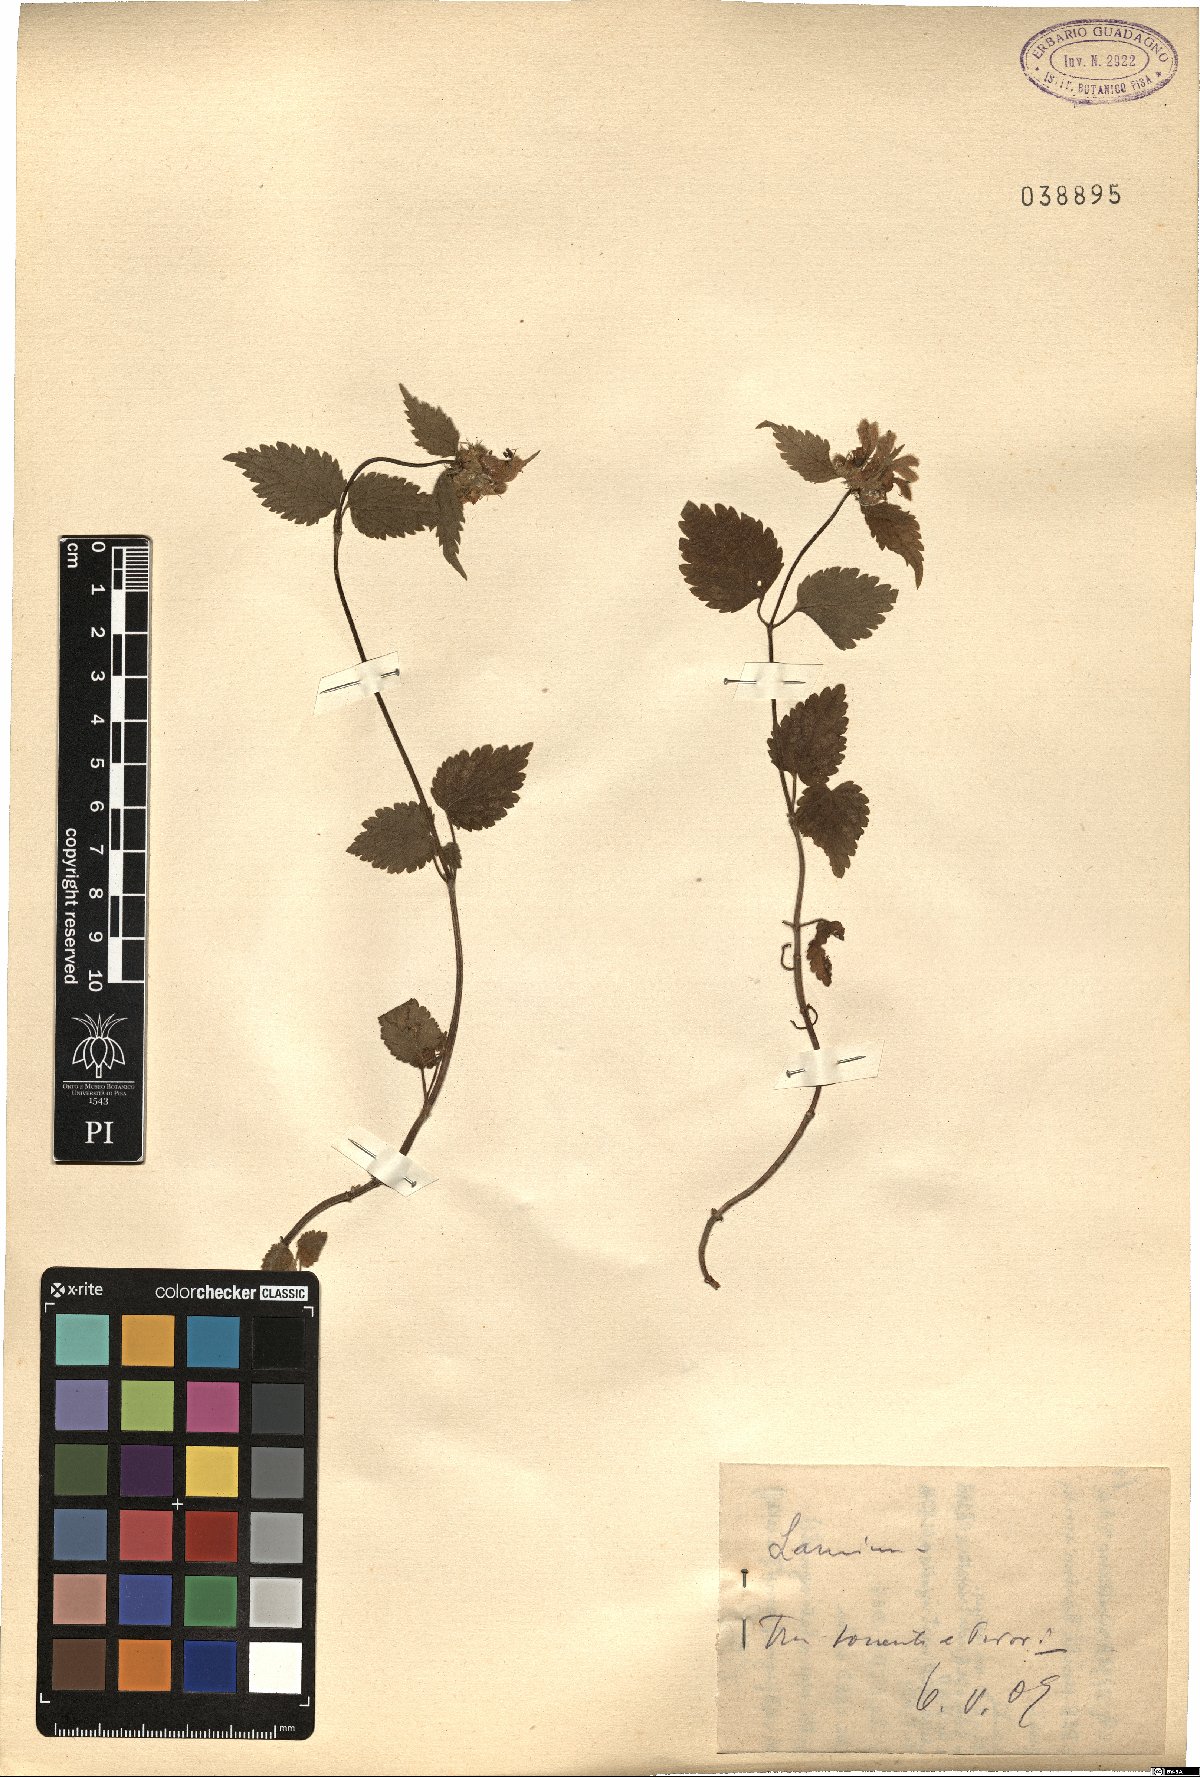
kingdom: Plantae
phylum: Tracheophyta
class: Magnoliopsida
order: Lamiales
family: Lamiaceae
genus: Lamium
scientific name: Lamium
